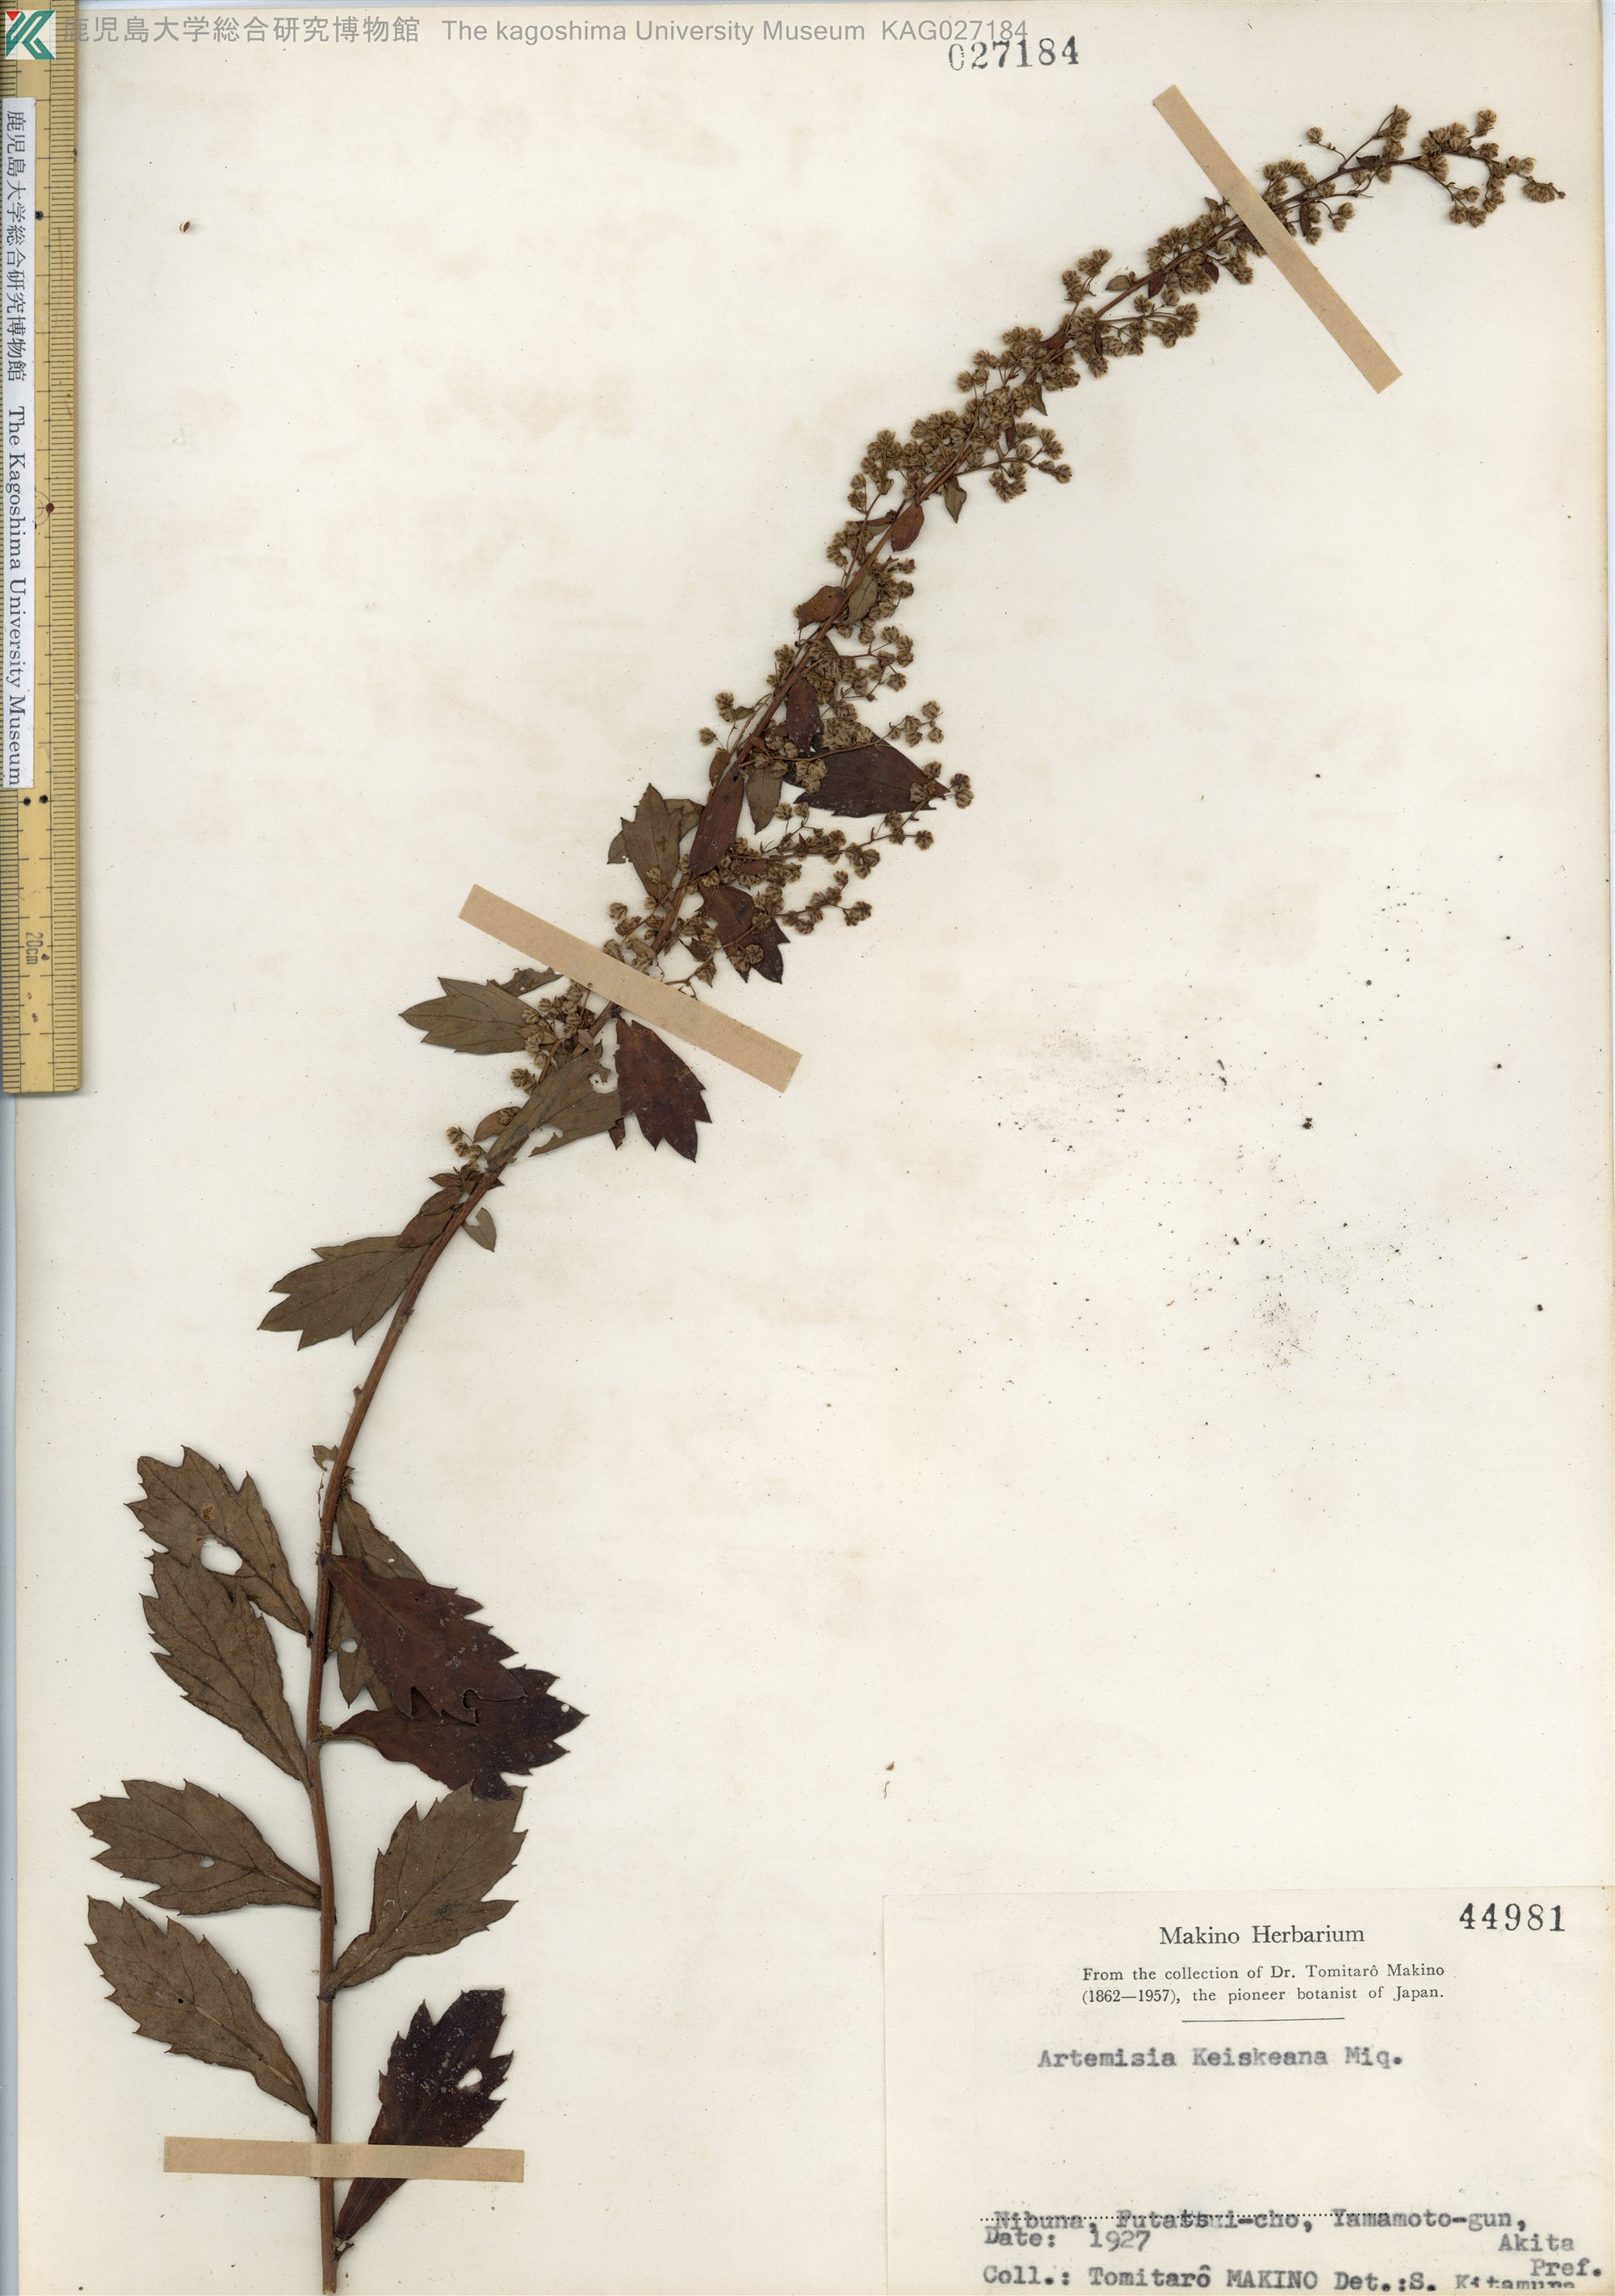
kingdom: Plantae
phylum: Tracheophyta
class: Magnoliopsida
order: Asterales
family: Asteraceae
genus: Artemisia
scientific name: Artemisia keiskeana
